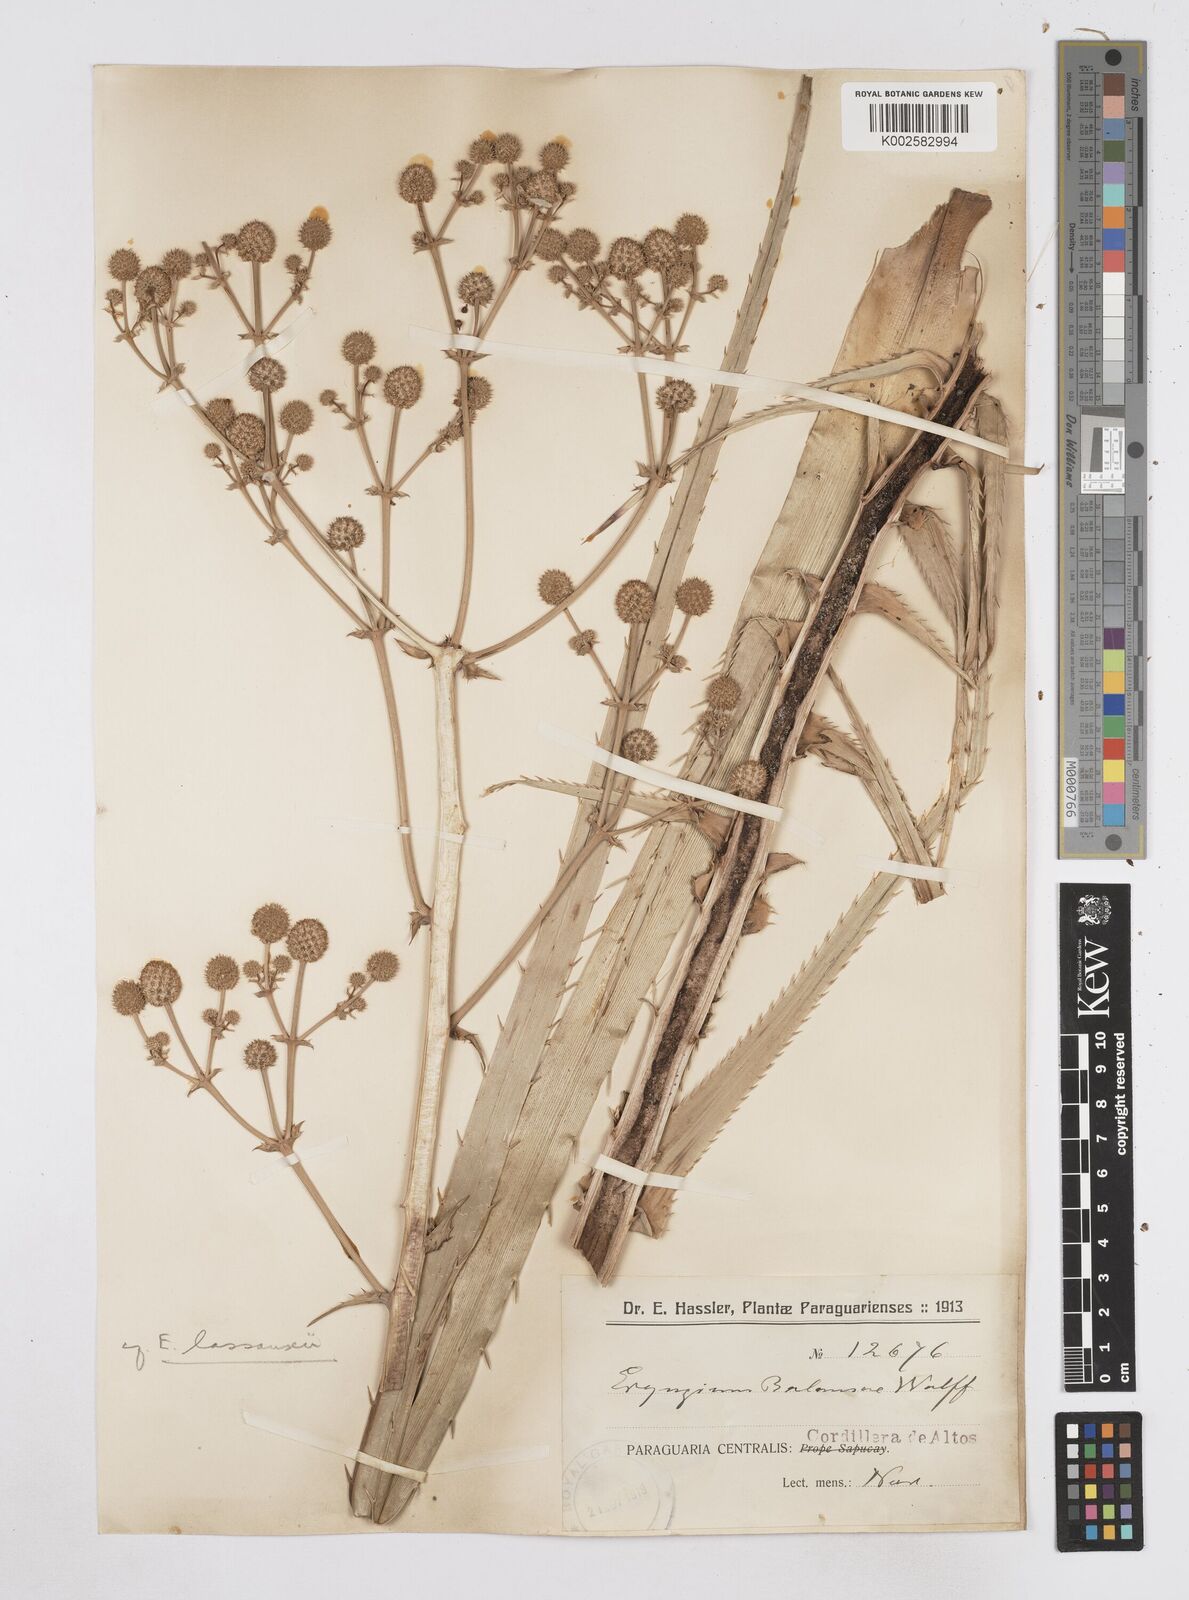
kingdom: Plantae
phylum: Tracheophyta
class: Magnoliopsida
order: Apiales
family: Apiaceae
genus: Eryngium
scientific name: Eryngium balansae
